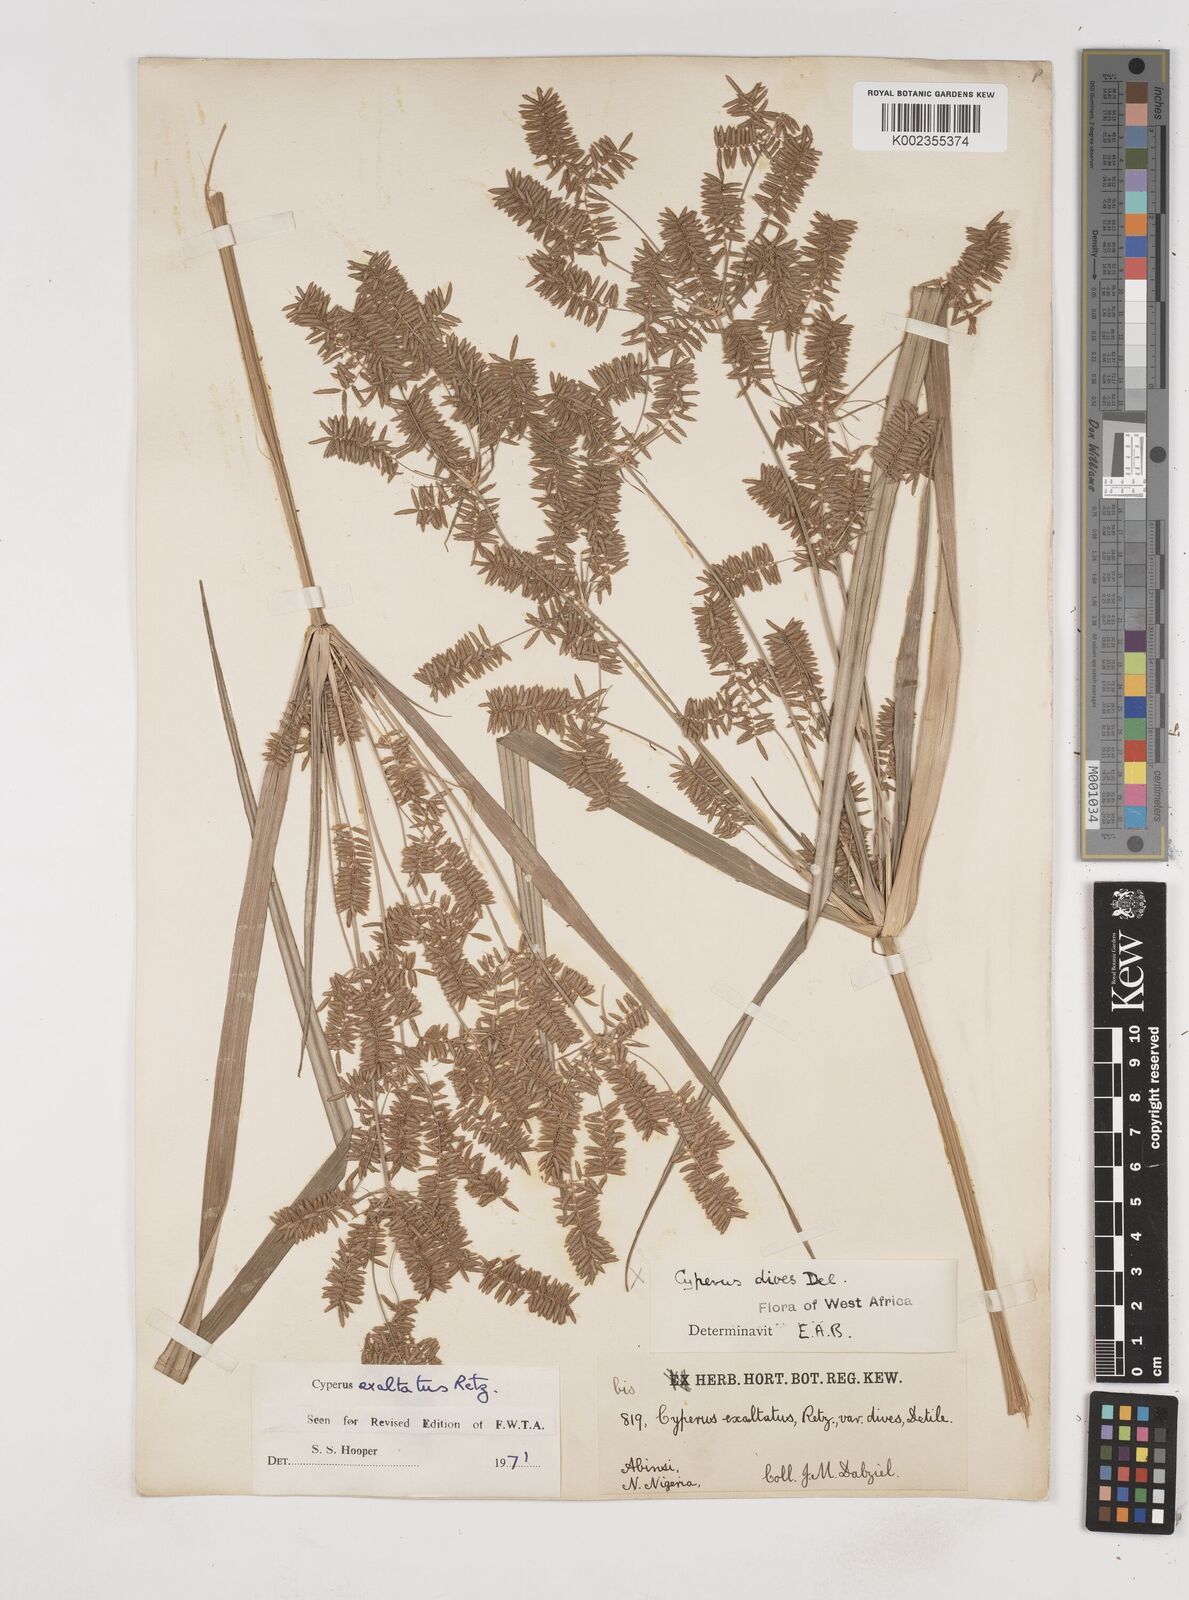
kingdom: Plantae
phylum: Tracheophyta
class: Liliopsida
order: Poales
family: Cyperaceae
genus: Cyperus
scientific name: Cyperus exaltatus
